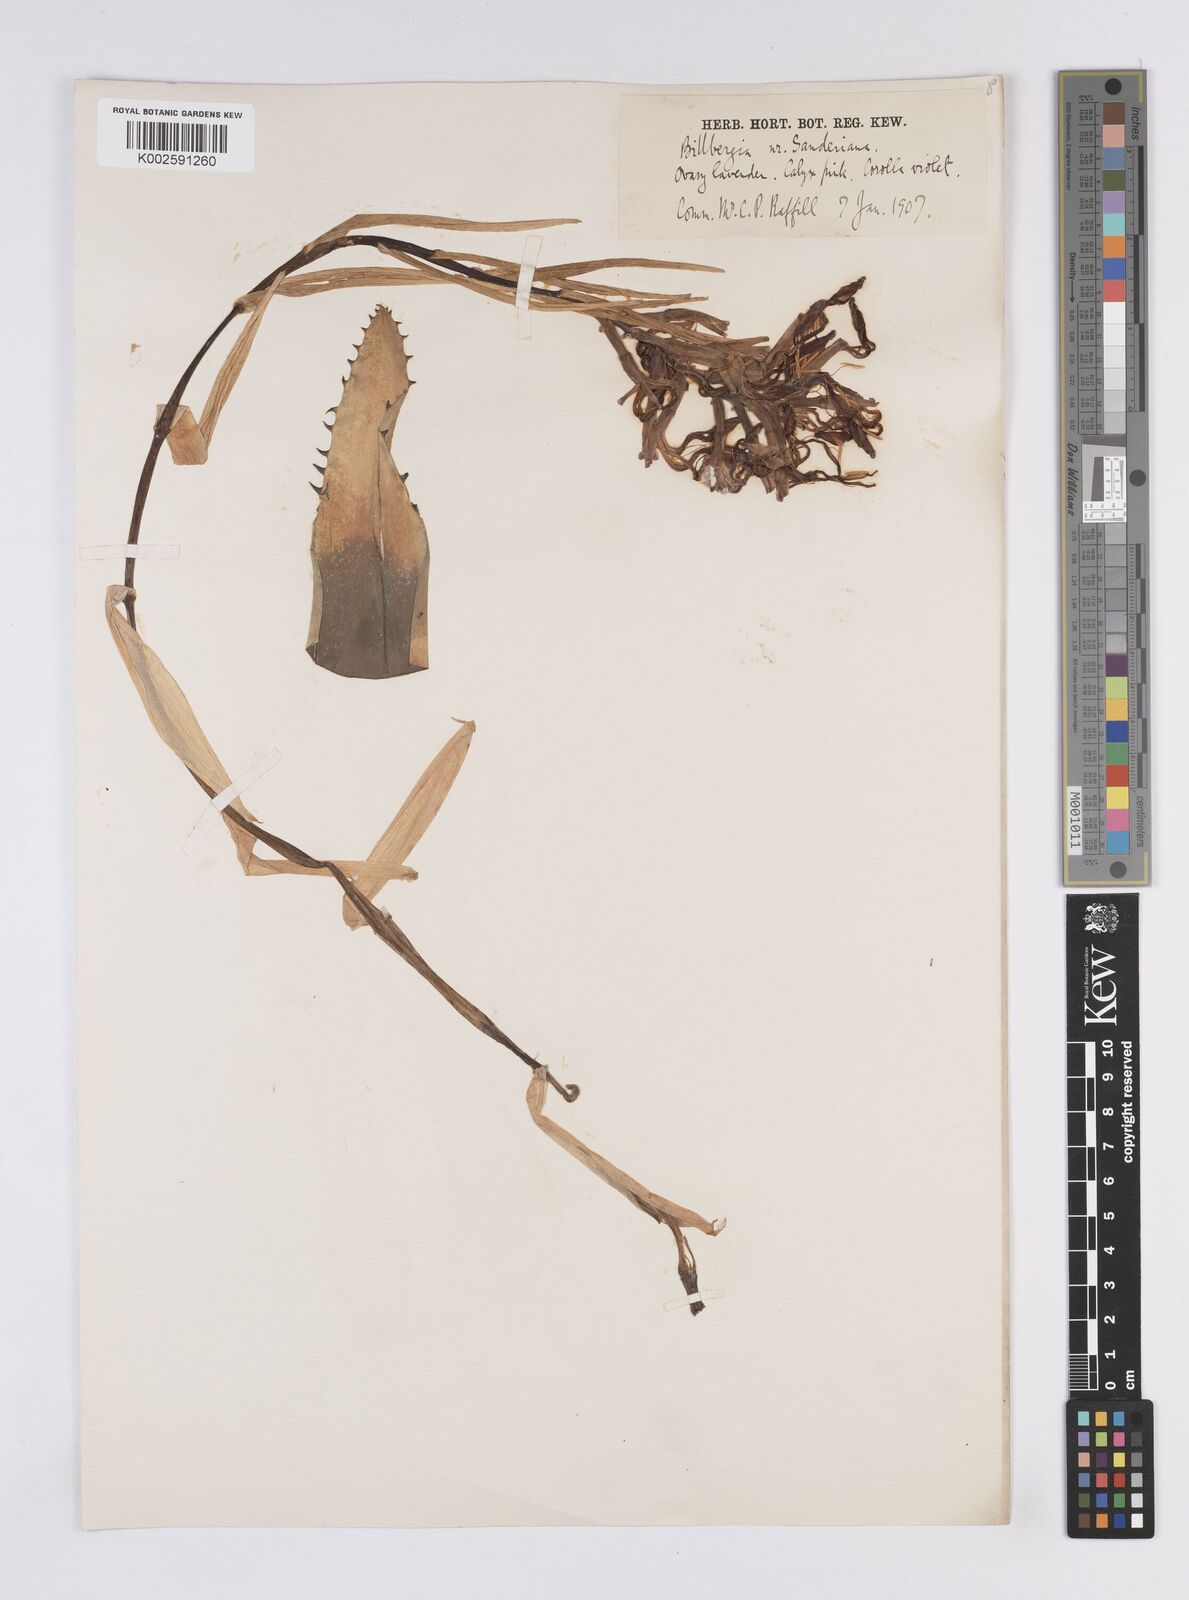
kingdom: Plantae
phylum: Tracheophyta
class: Liliopsida
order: Poales
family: Bromeliaceae
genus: Billbergia
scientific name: Billbergia sanderiana
